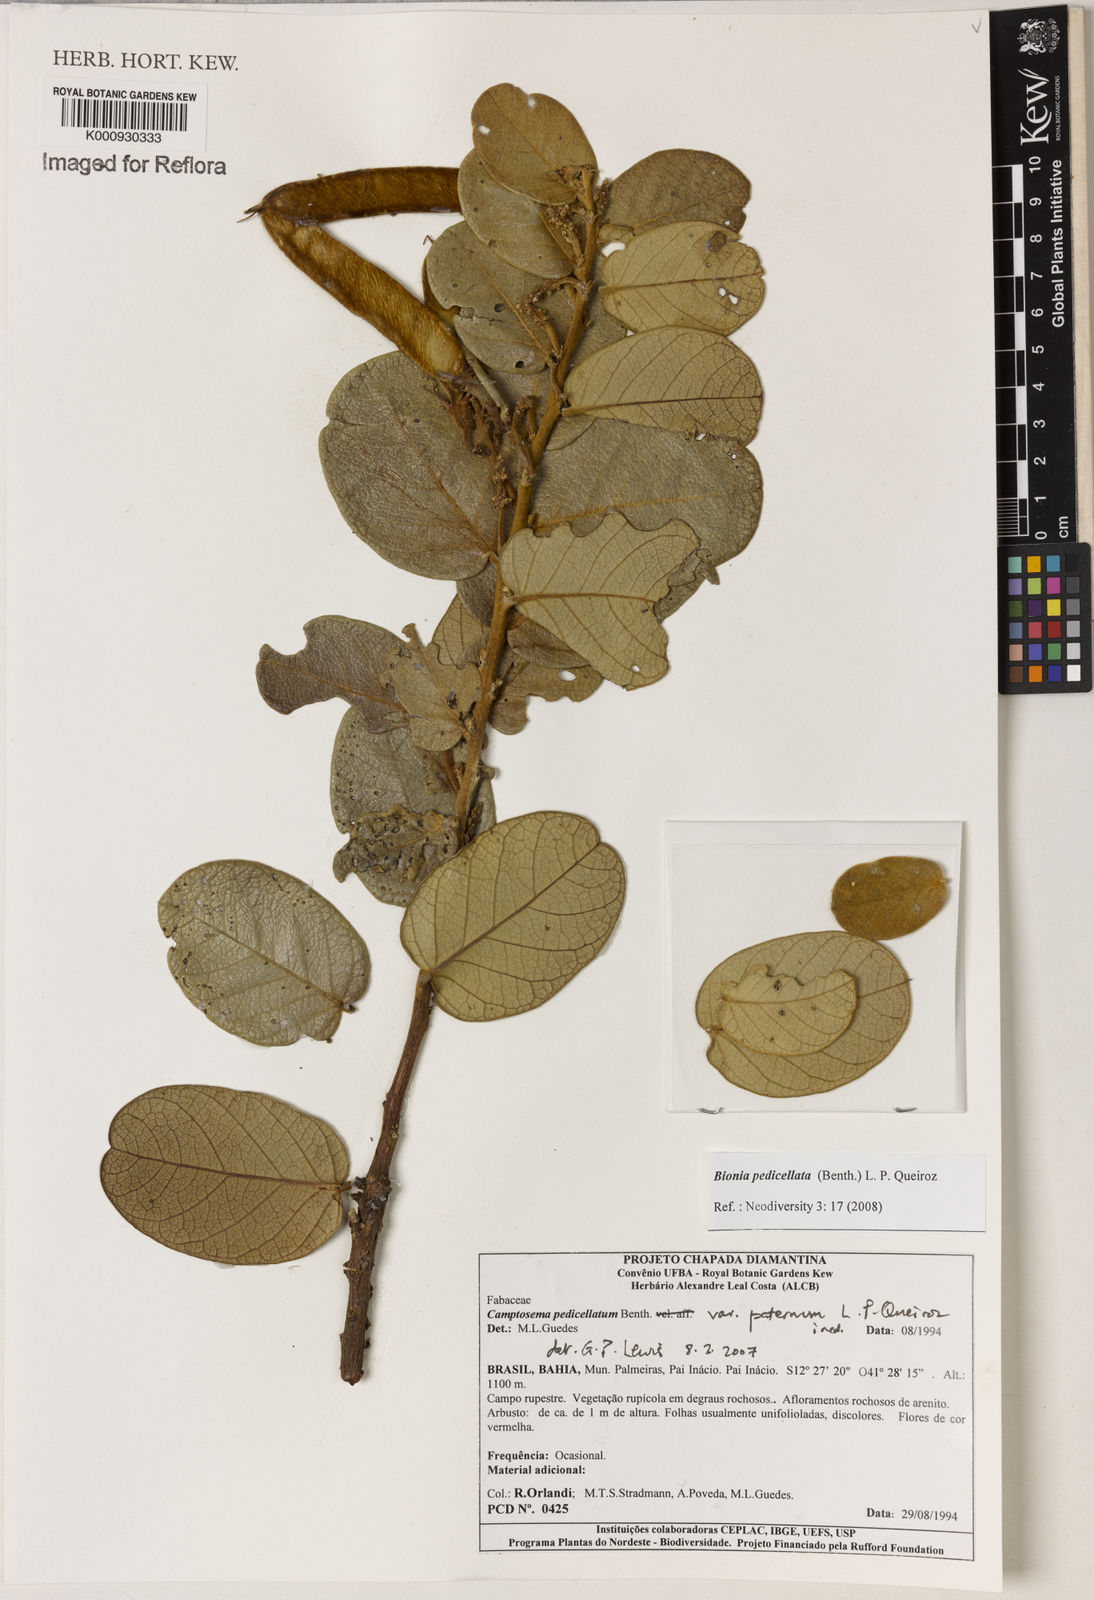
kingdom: Plantae
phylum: Tracheophyta
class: Magnoliopsida
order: Fabales
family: Fabaceae
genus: Camptosema
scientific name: Camptosema pedicellatum
